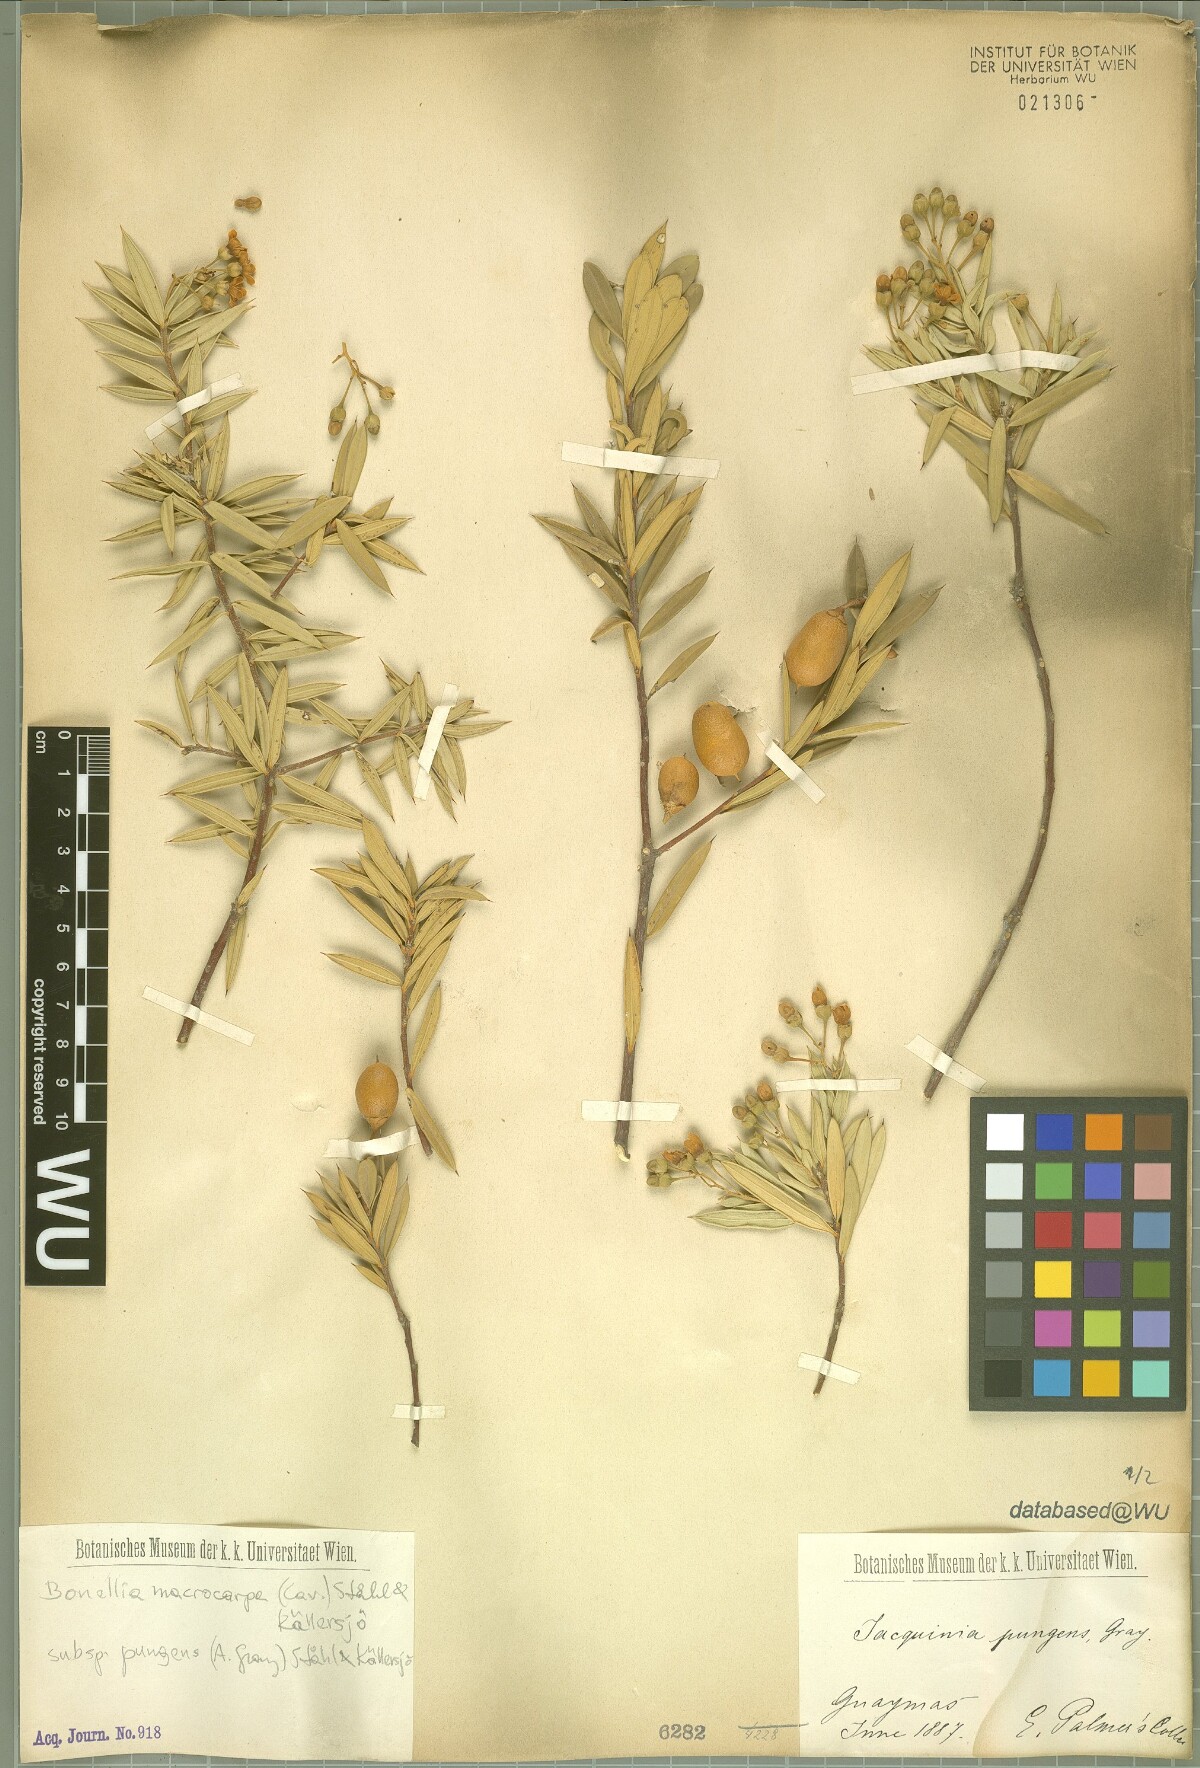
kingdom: Plantae
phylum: Tracheophyta
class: Magnoliopsida
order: Ericales
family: Primulaceae
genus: Bonellia
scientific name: Bonellia macrocarpa
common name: Primrose
